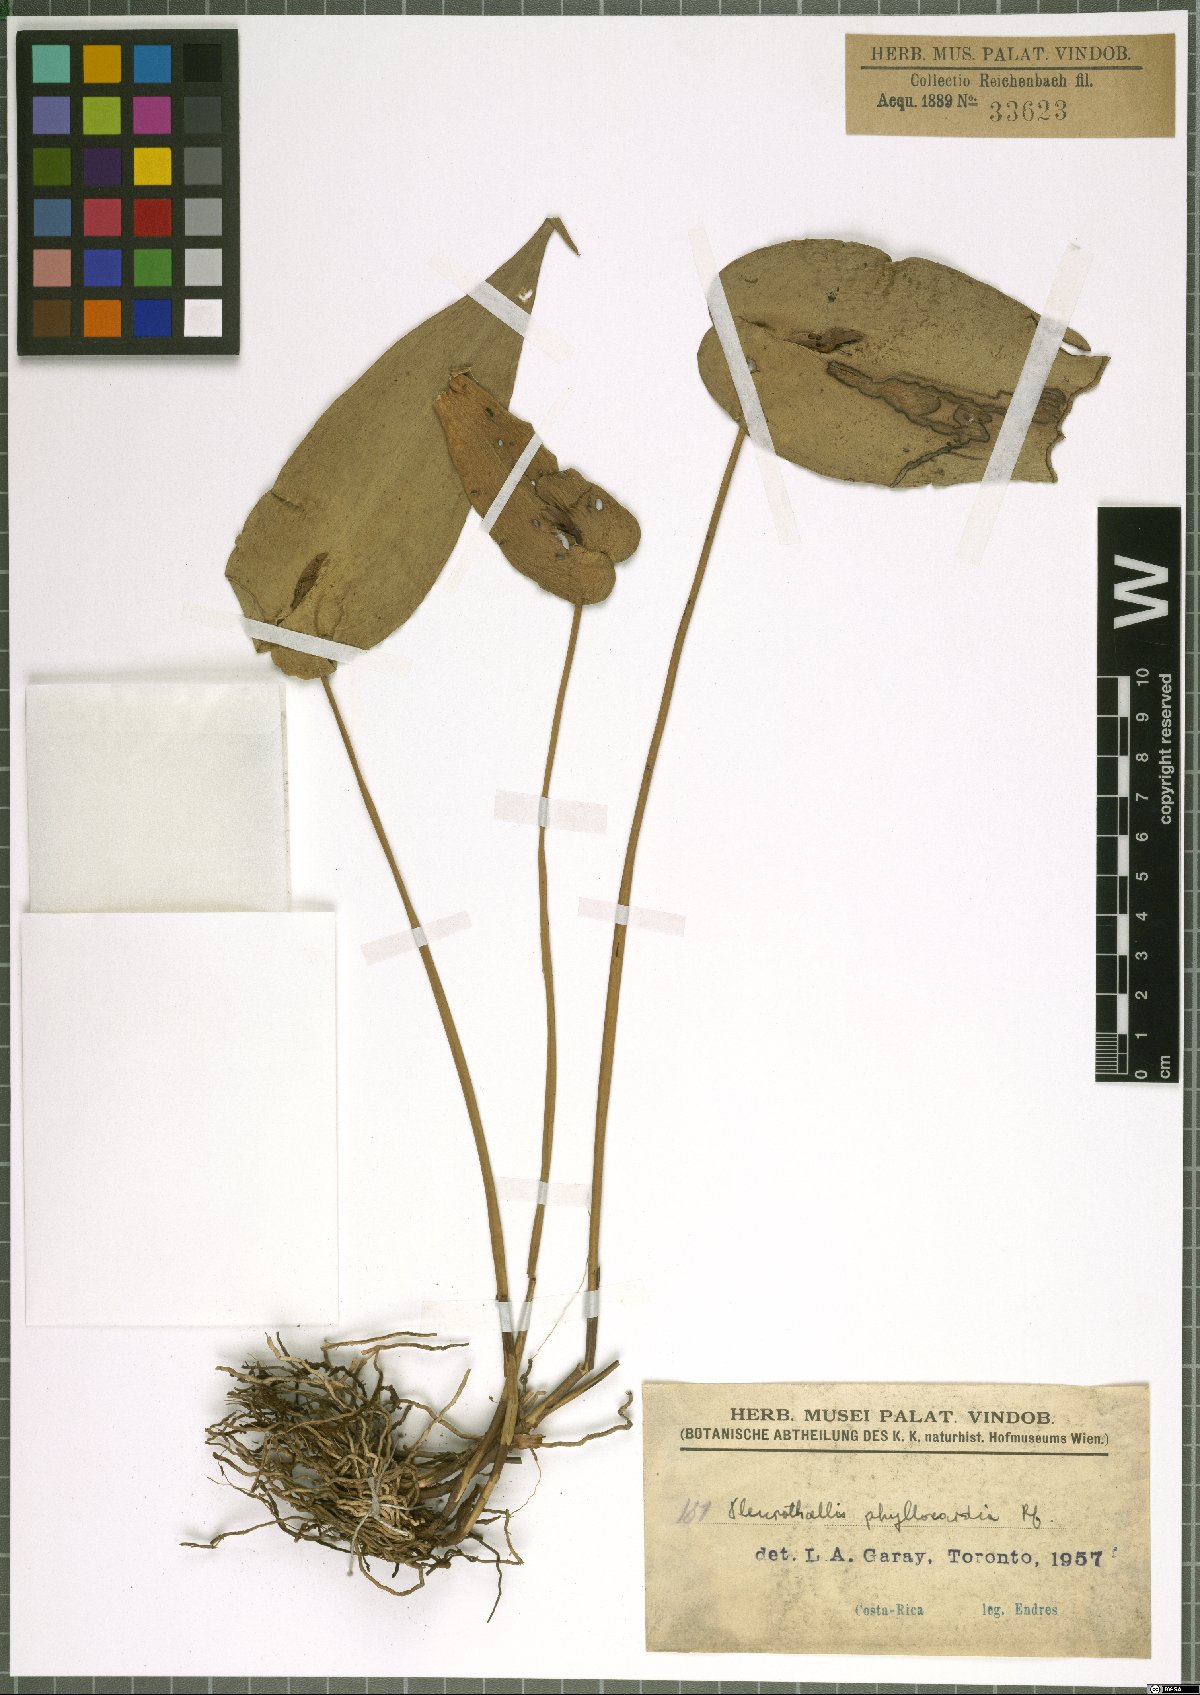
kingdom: Plantae
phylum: Tracheophyta
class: Liliopsida
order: Asparagales
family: Orchidaceae
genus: Pleurothallis
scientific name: Pleurothallis phyllocardia
